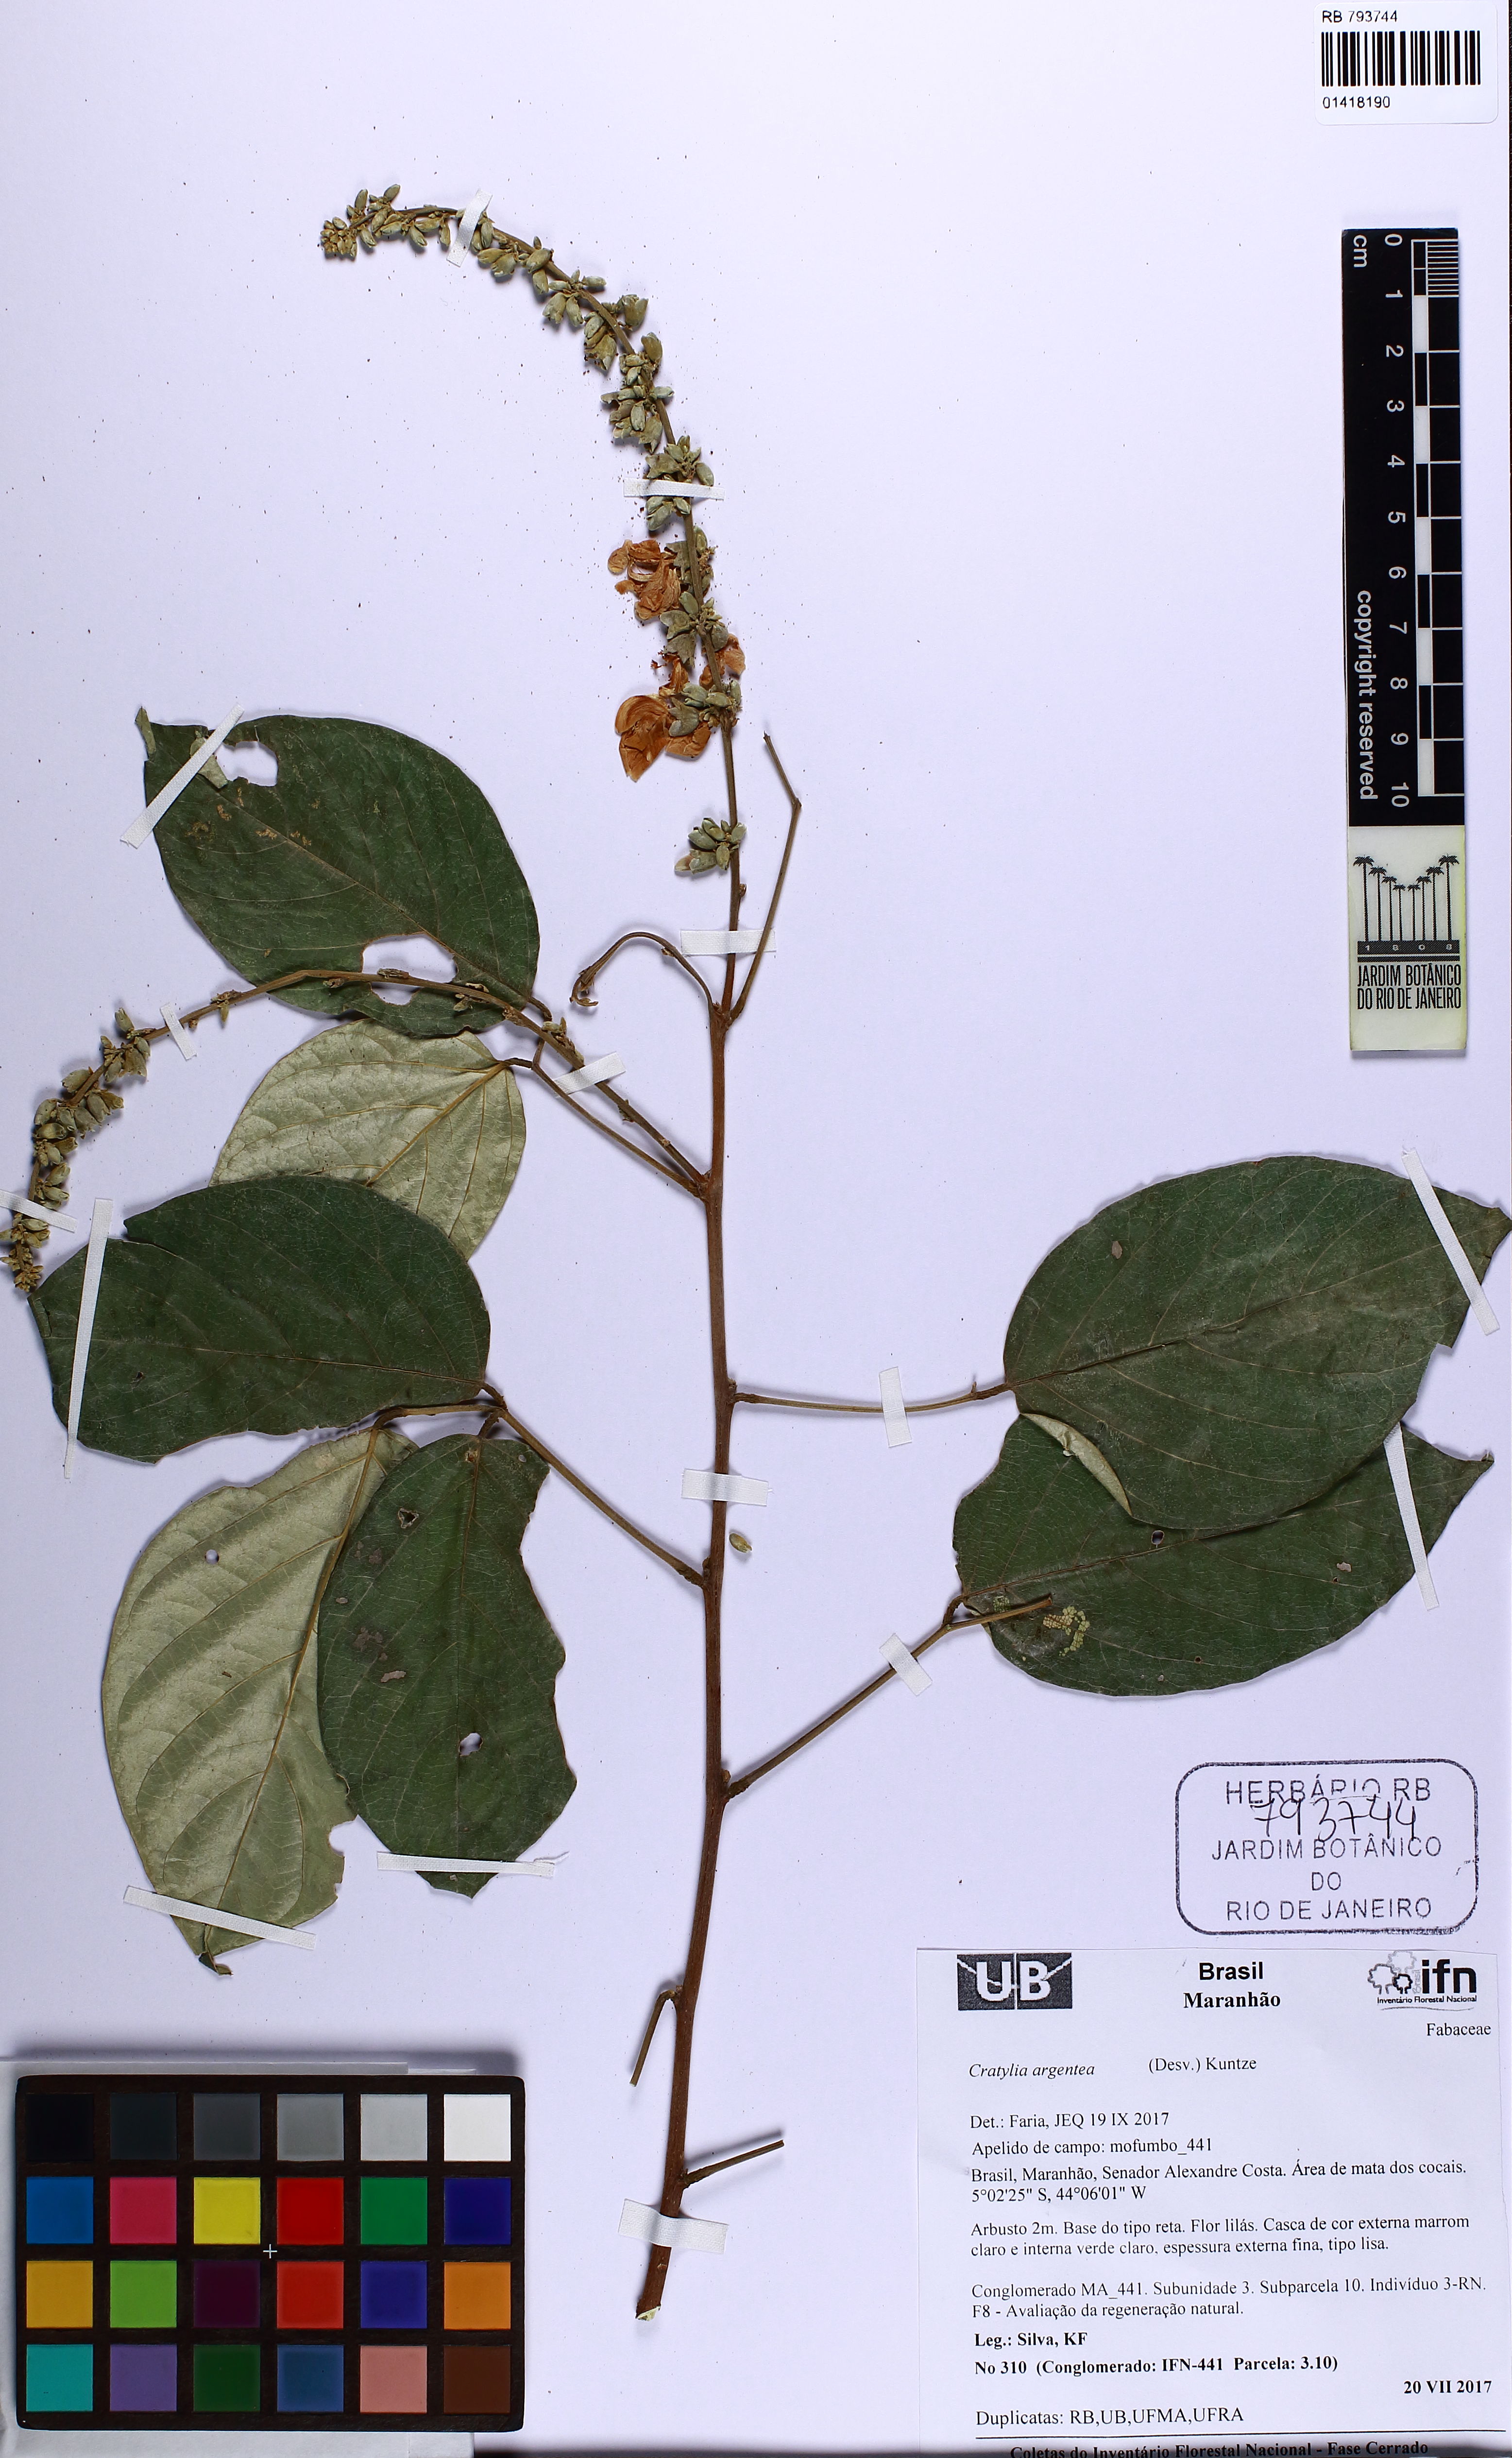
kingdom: Plantae
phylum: Tracheophyta
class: Magnoliopsida
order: Fabales
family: Fabaceae
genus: Cratylia
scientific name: Cratylia argentea
